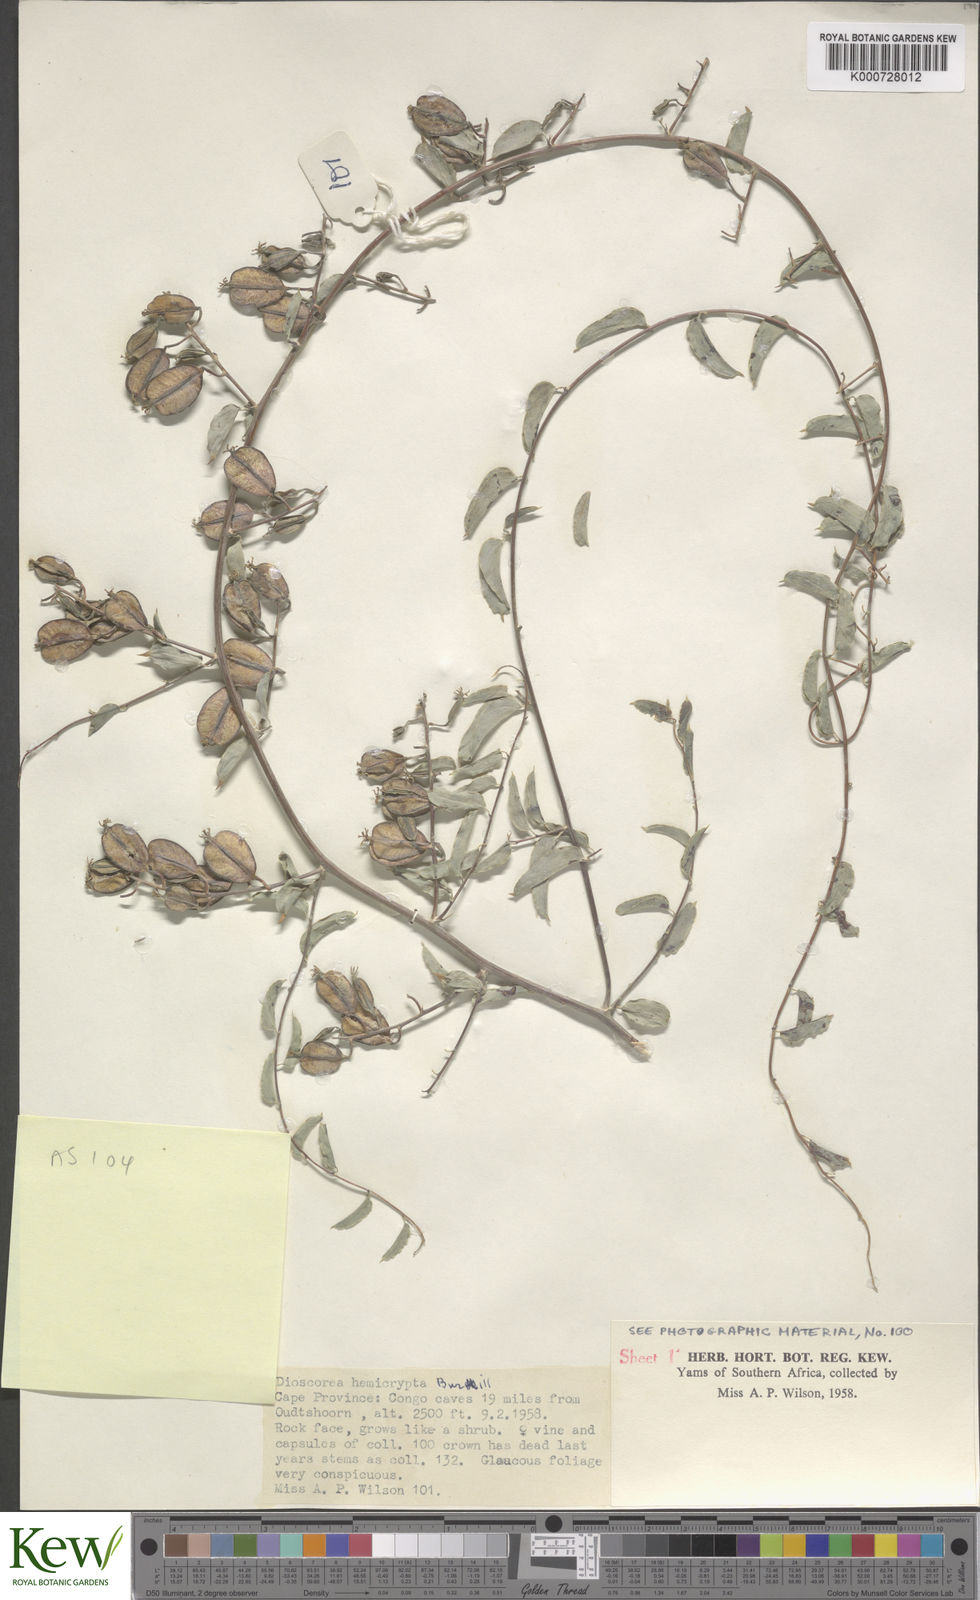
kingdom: Plantae
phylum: Tracheophyta
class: Liliopsida
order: Dioscoreales
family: Dioscoreaceae
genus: Dioscorea
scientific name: Dioscorea hemicrypta
